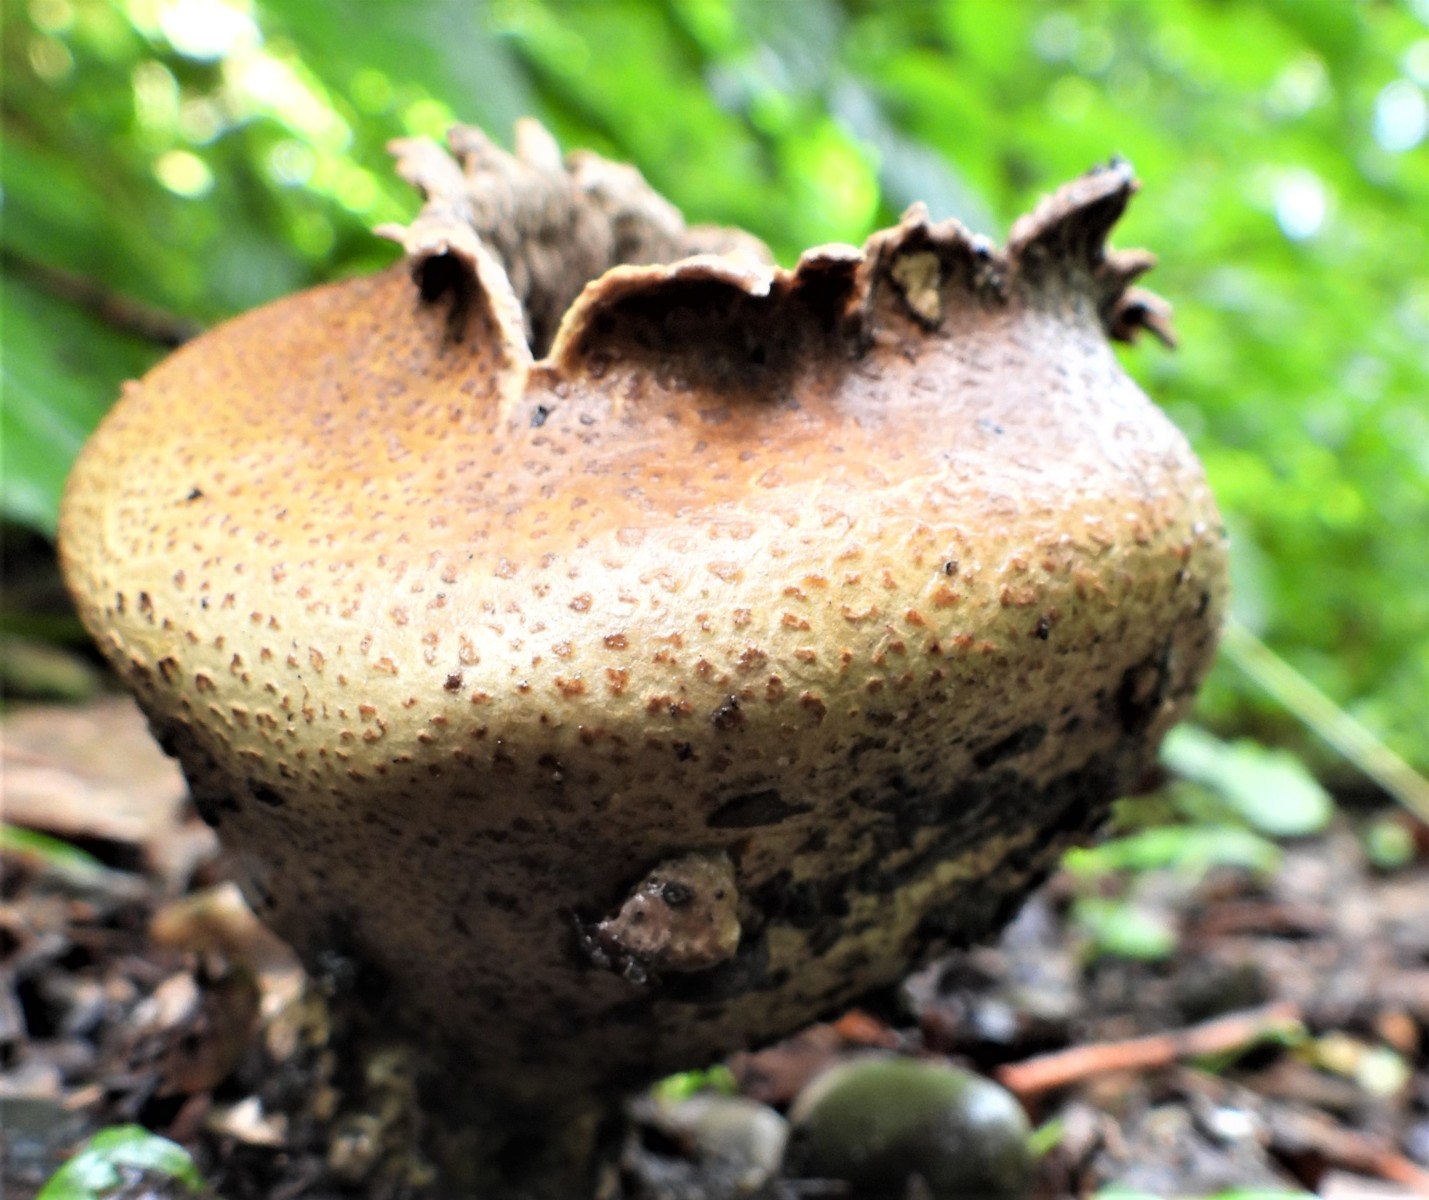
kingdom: Fungi
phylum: Basidiomycota
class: Agaricomycetes
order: Boletales
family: Sclerodermataceae
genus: Scleroderma
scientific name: Scleroderma citrinum
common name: almindelig bruskbold
